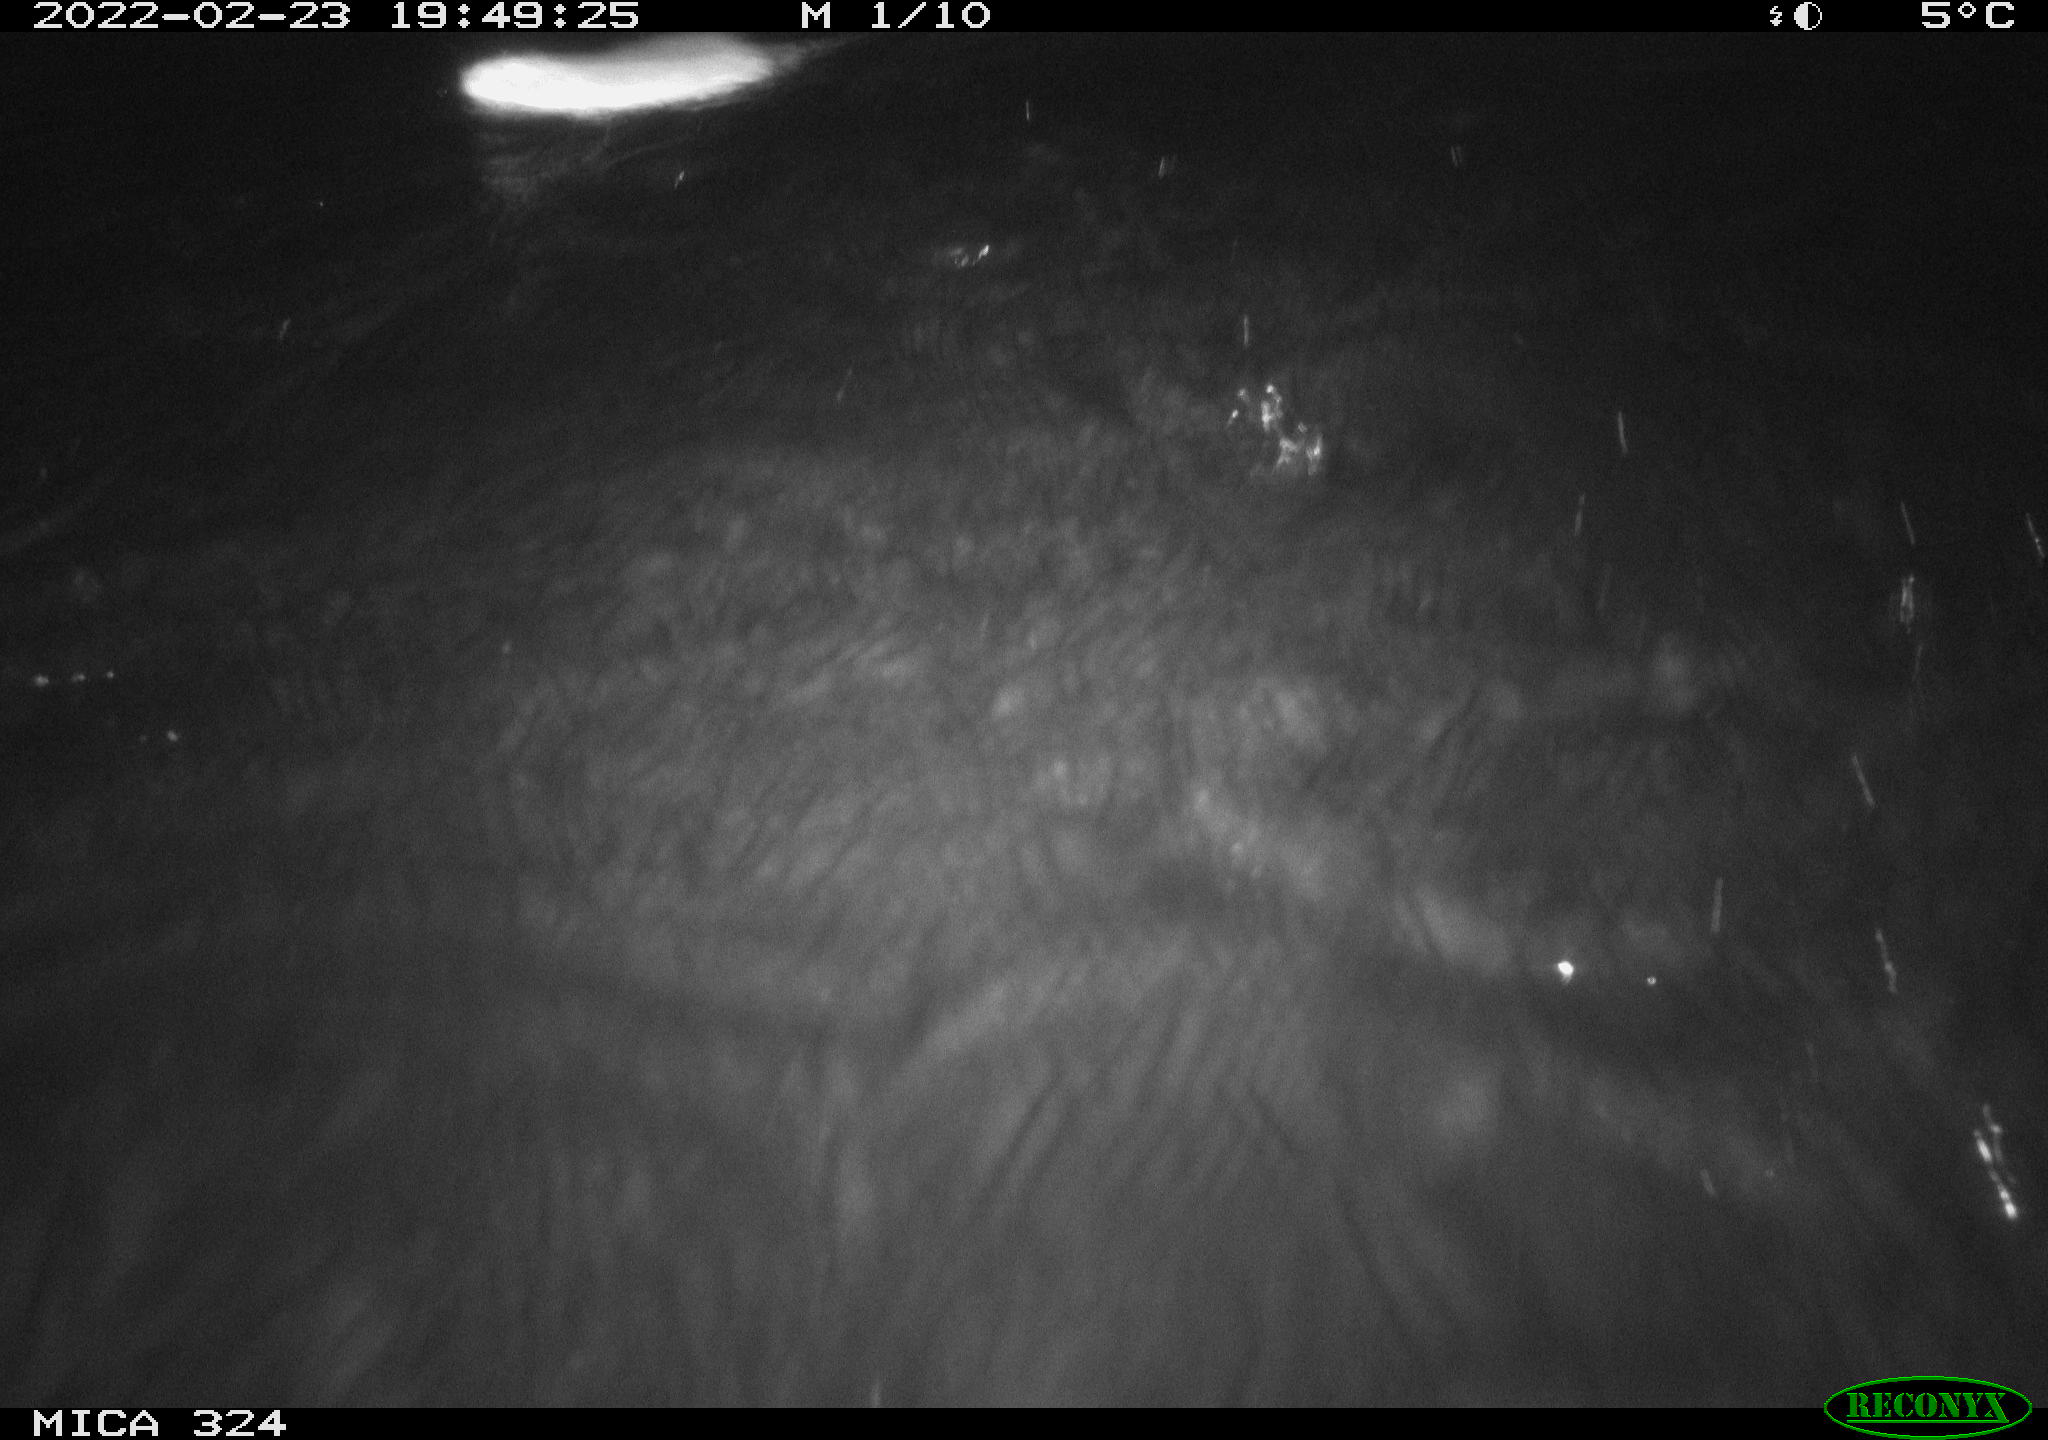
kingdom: Animalia
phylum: Chordata
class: Mammalia
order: Rodentia
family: Cricetidae
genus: Ondatra
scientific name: Ondatra zibethicus
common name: Muskrat
